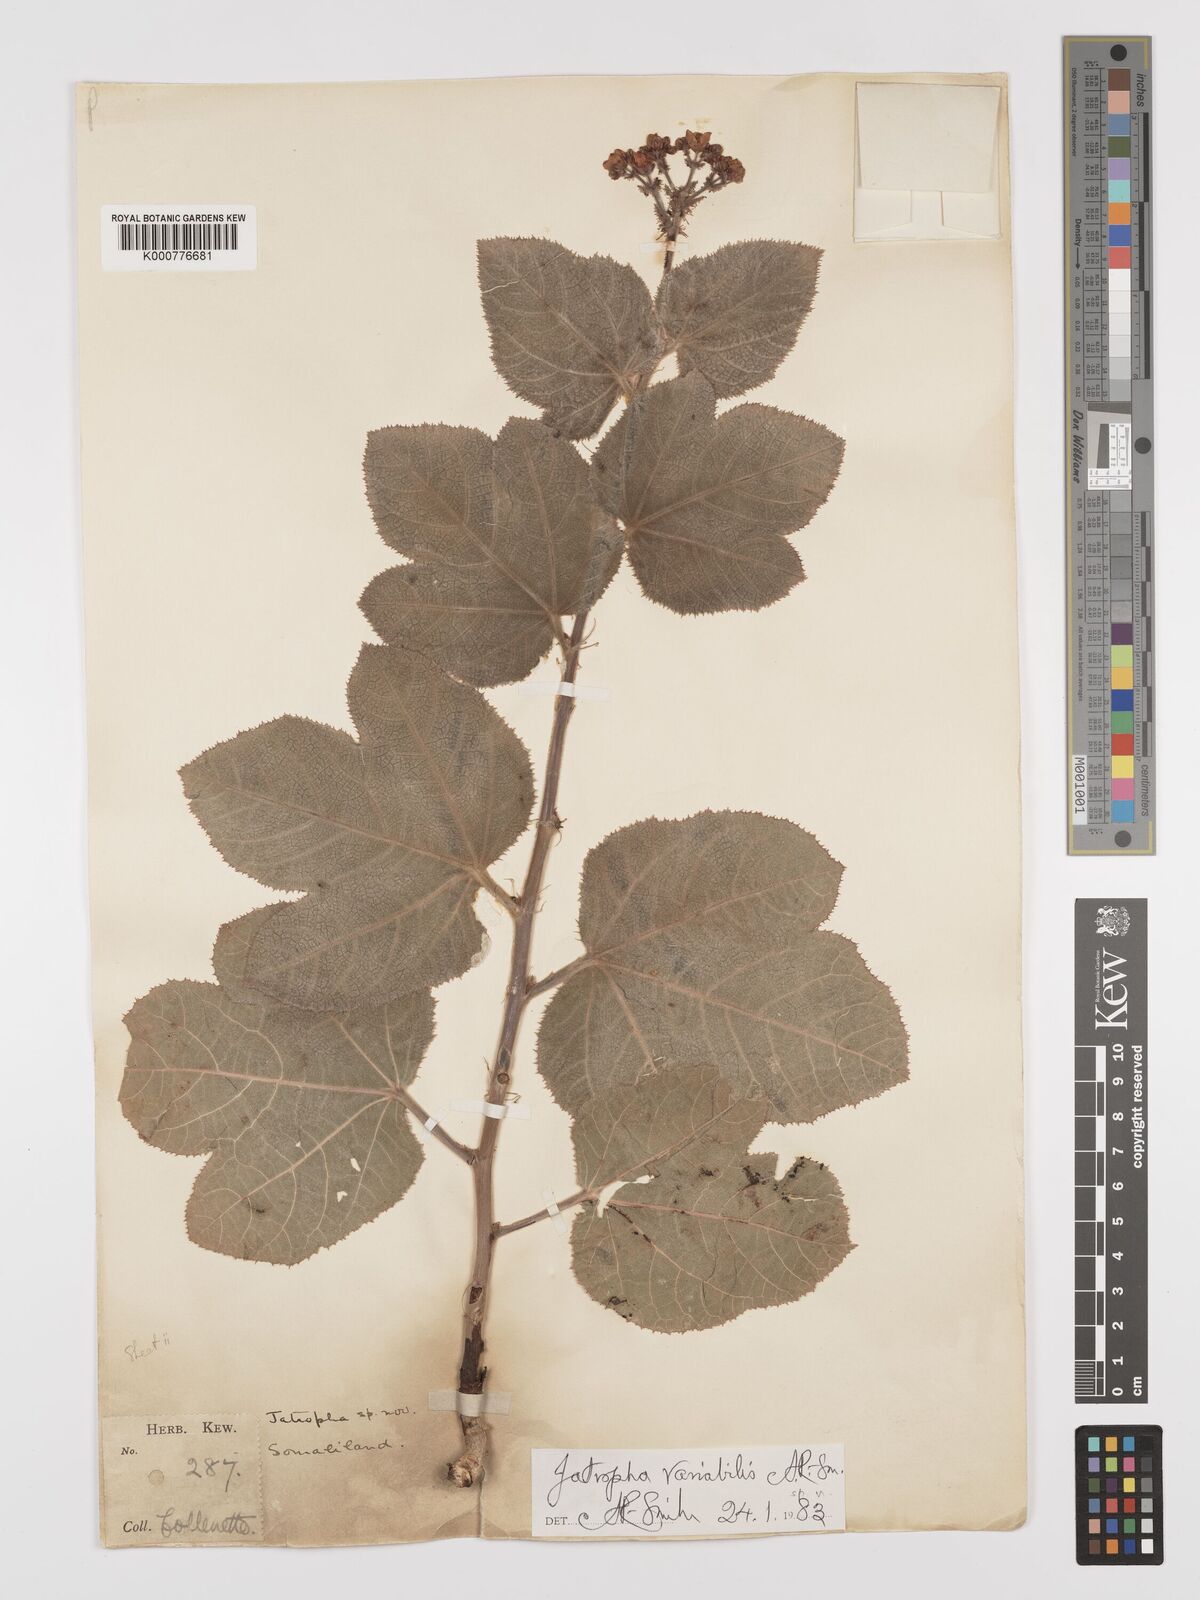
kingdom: Plantae
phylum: Tracheophyta
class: Magnoliopsida
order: Malpighiales
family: Euphorbiaceae
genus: Jatropha
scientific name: Jatropha variabilis
